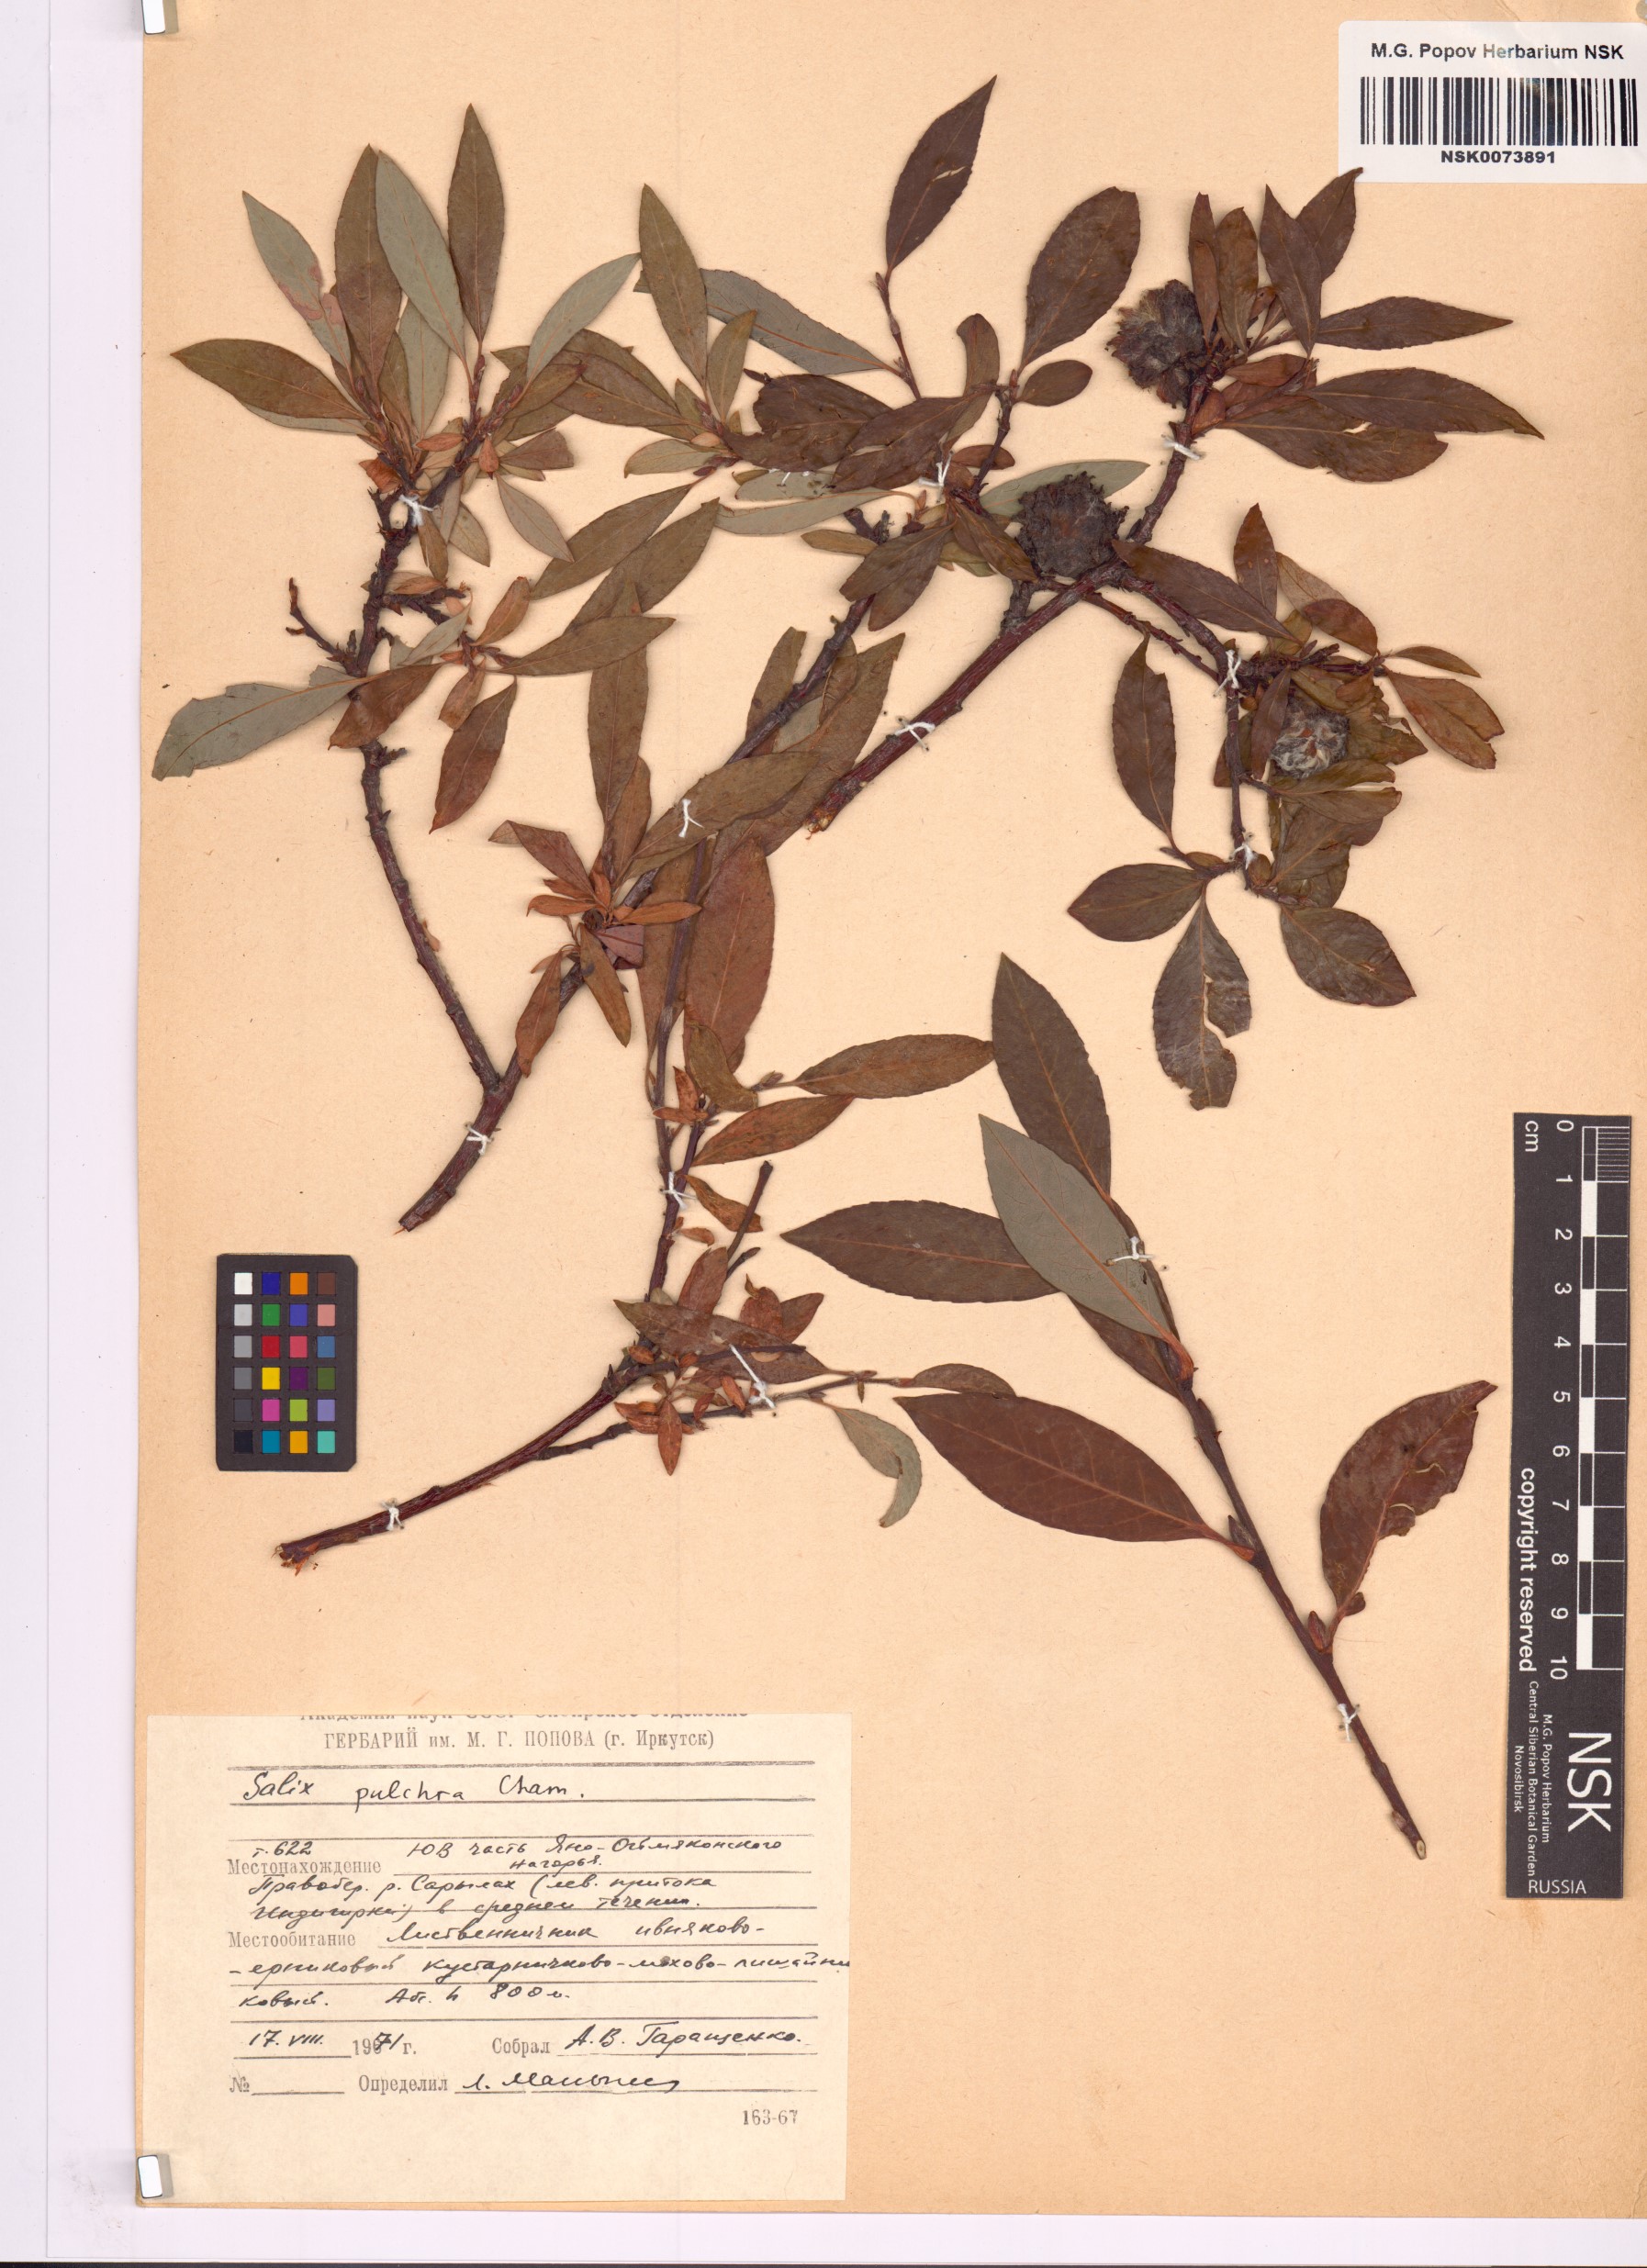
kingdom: Plantae
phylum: Tracheophyta
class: Magnoliopsida
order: Malpighiales
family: Salicaceae
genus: Salix
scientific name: Salix pulchra
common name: Diamond-leaved willow
